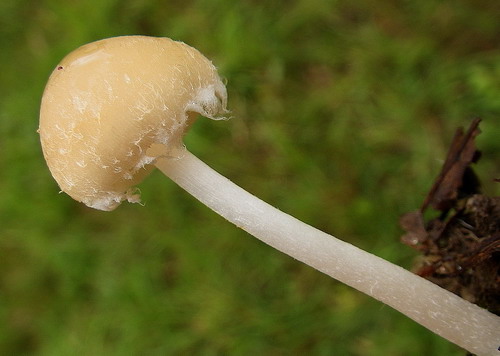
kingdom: Fungi
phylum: Basidiomycota
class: Agaricomycetes
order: Agaricales
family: Psathyrellaceae
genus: Candolleomyces
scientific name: Candolleomyces candolleanus
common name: Candolles mørkhat
